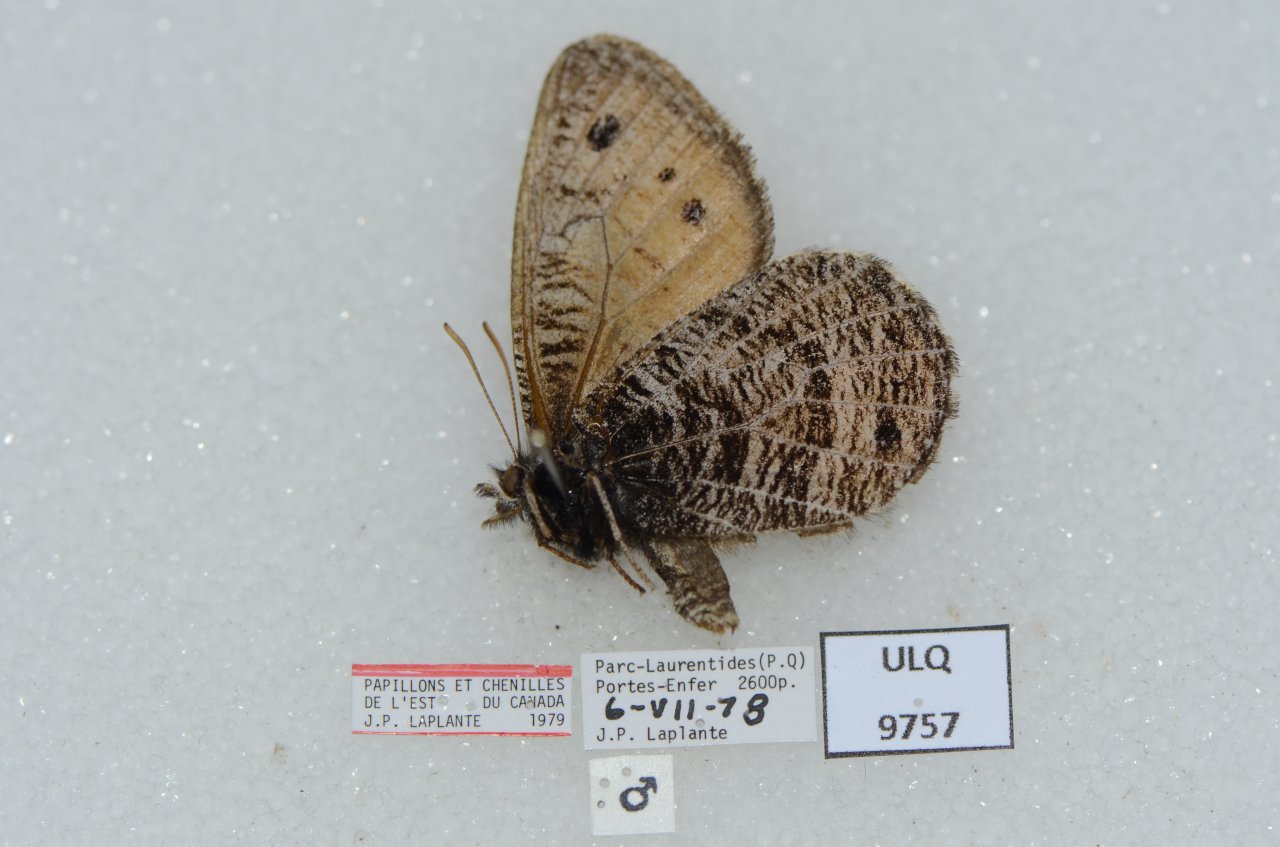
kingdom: Animalia
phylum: Arthropoda
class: Insecta
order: Lepidoptera
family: Nymphalidae
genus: Oeneis
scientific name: Oeneis chryxus
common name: Chryxus Arctic
